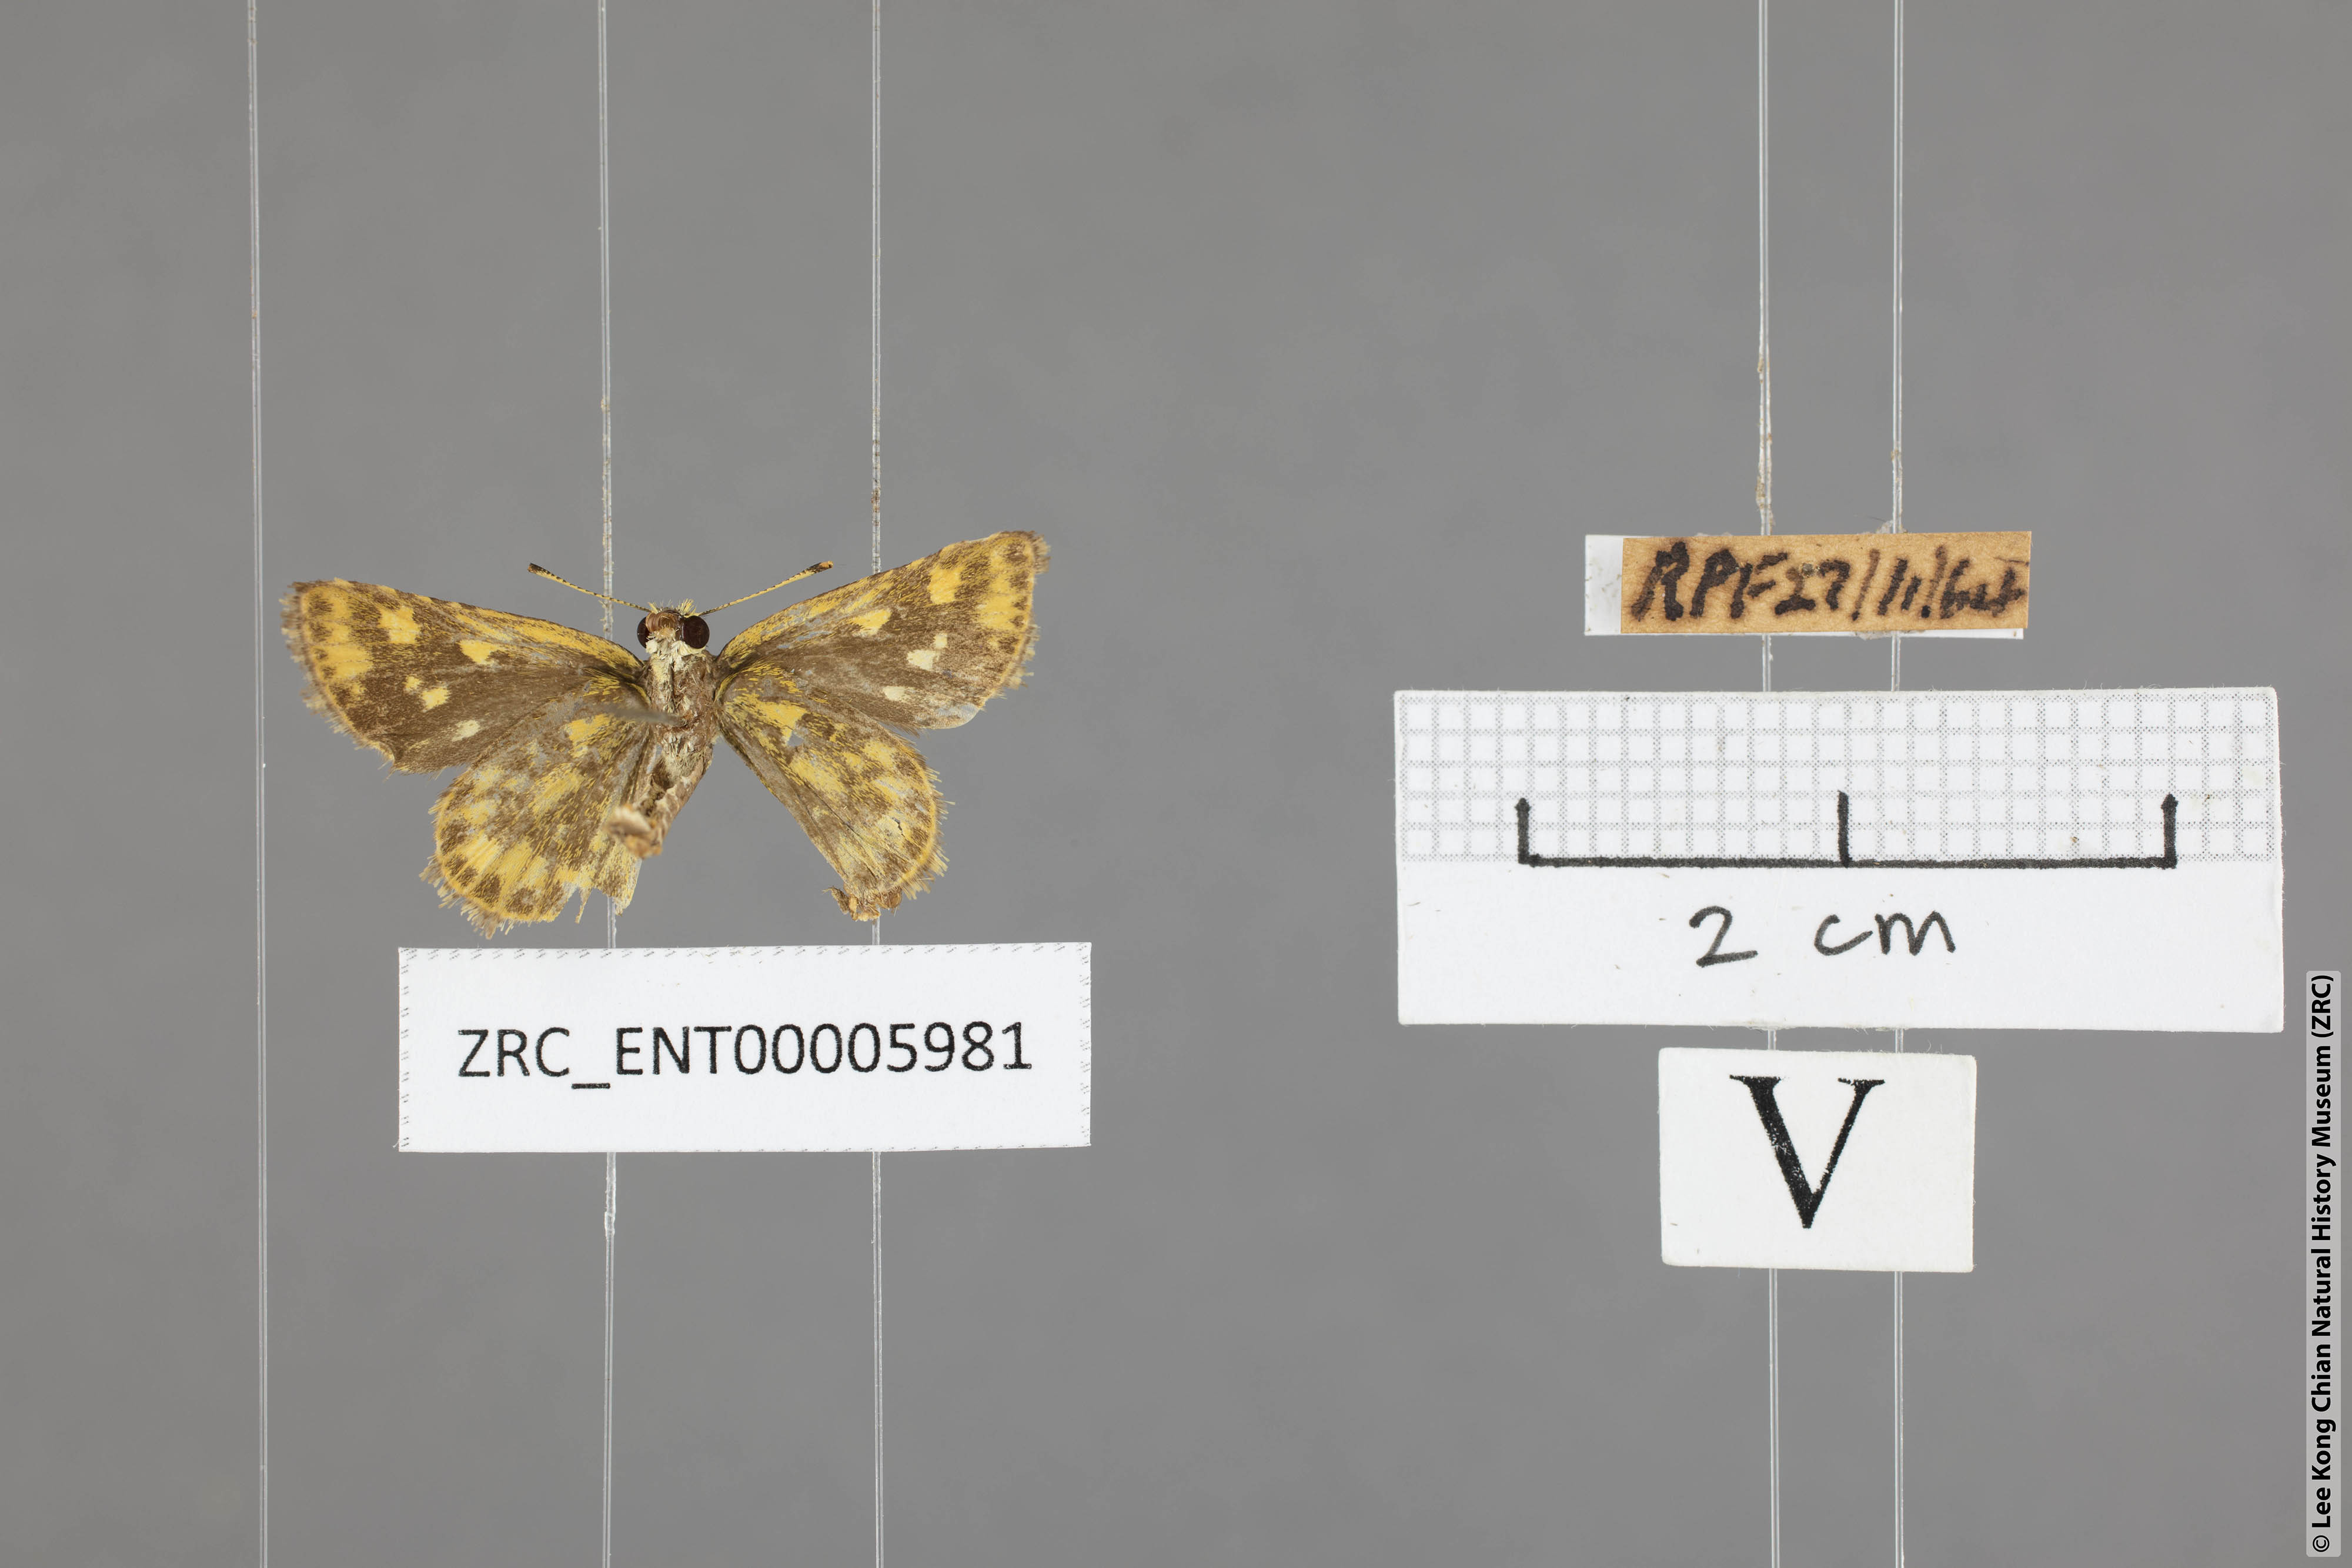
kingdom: Animalia
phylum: Arthropoda
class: Insecta
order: Lepidoptera
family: Hesperiidae
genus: Ampittia
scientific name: Ampittia dioscorides
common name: Common bush hopper
